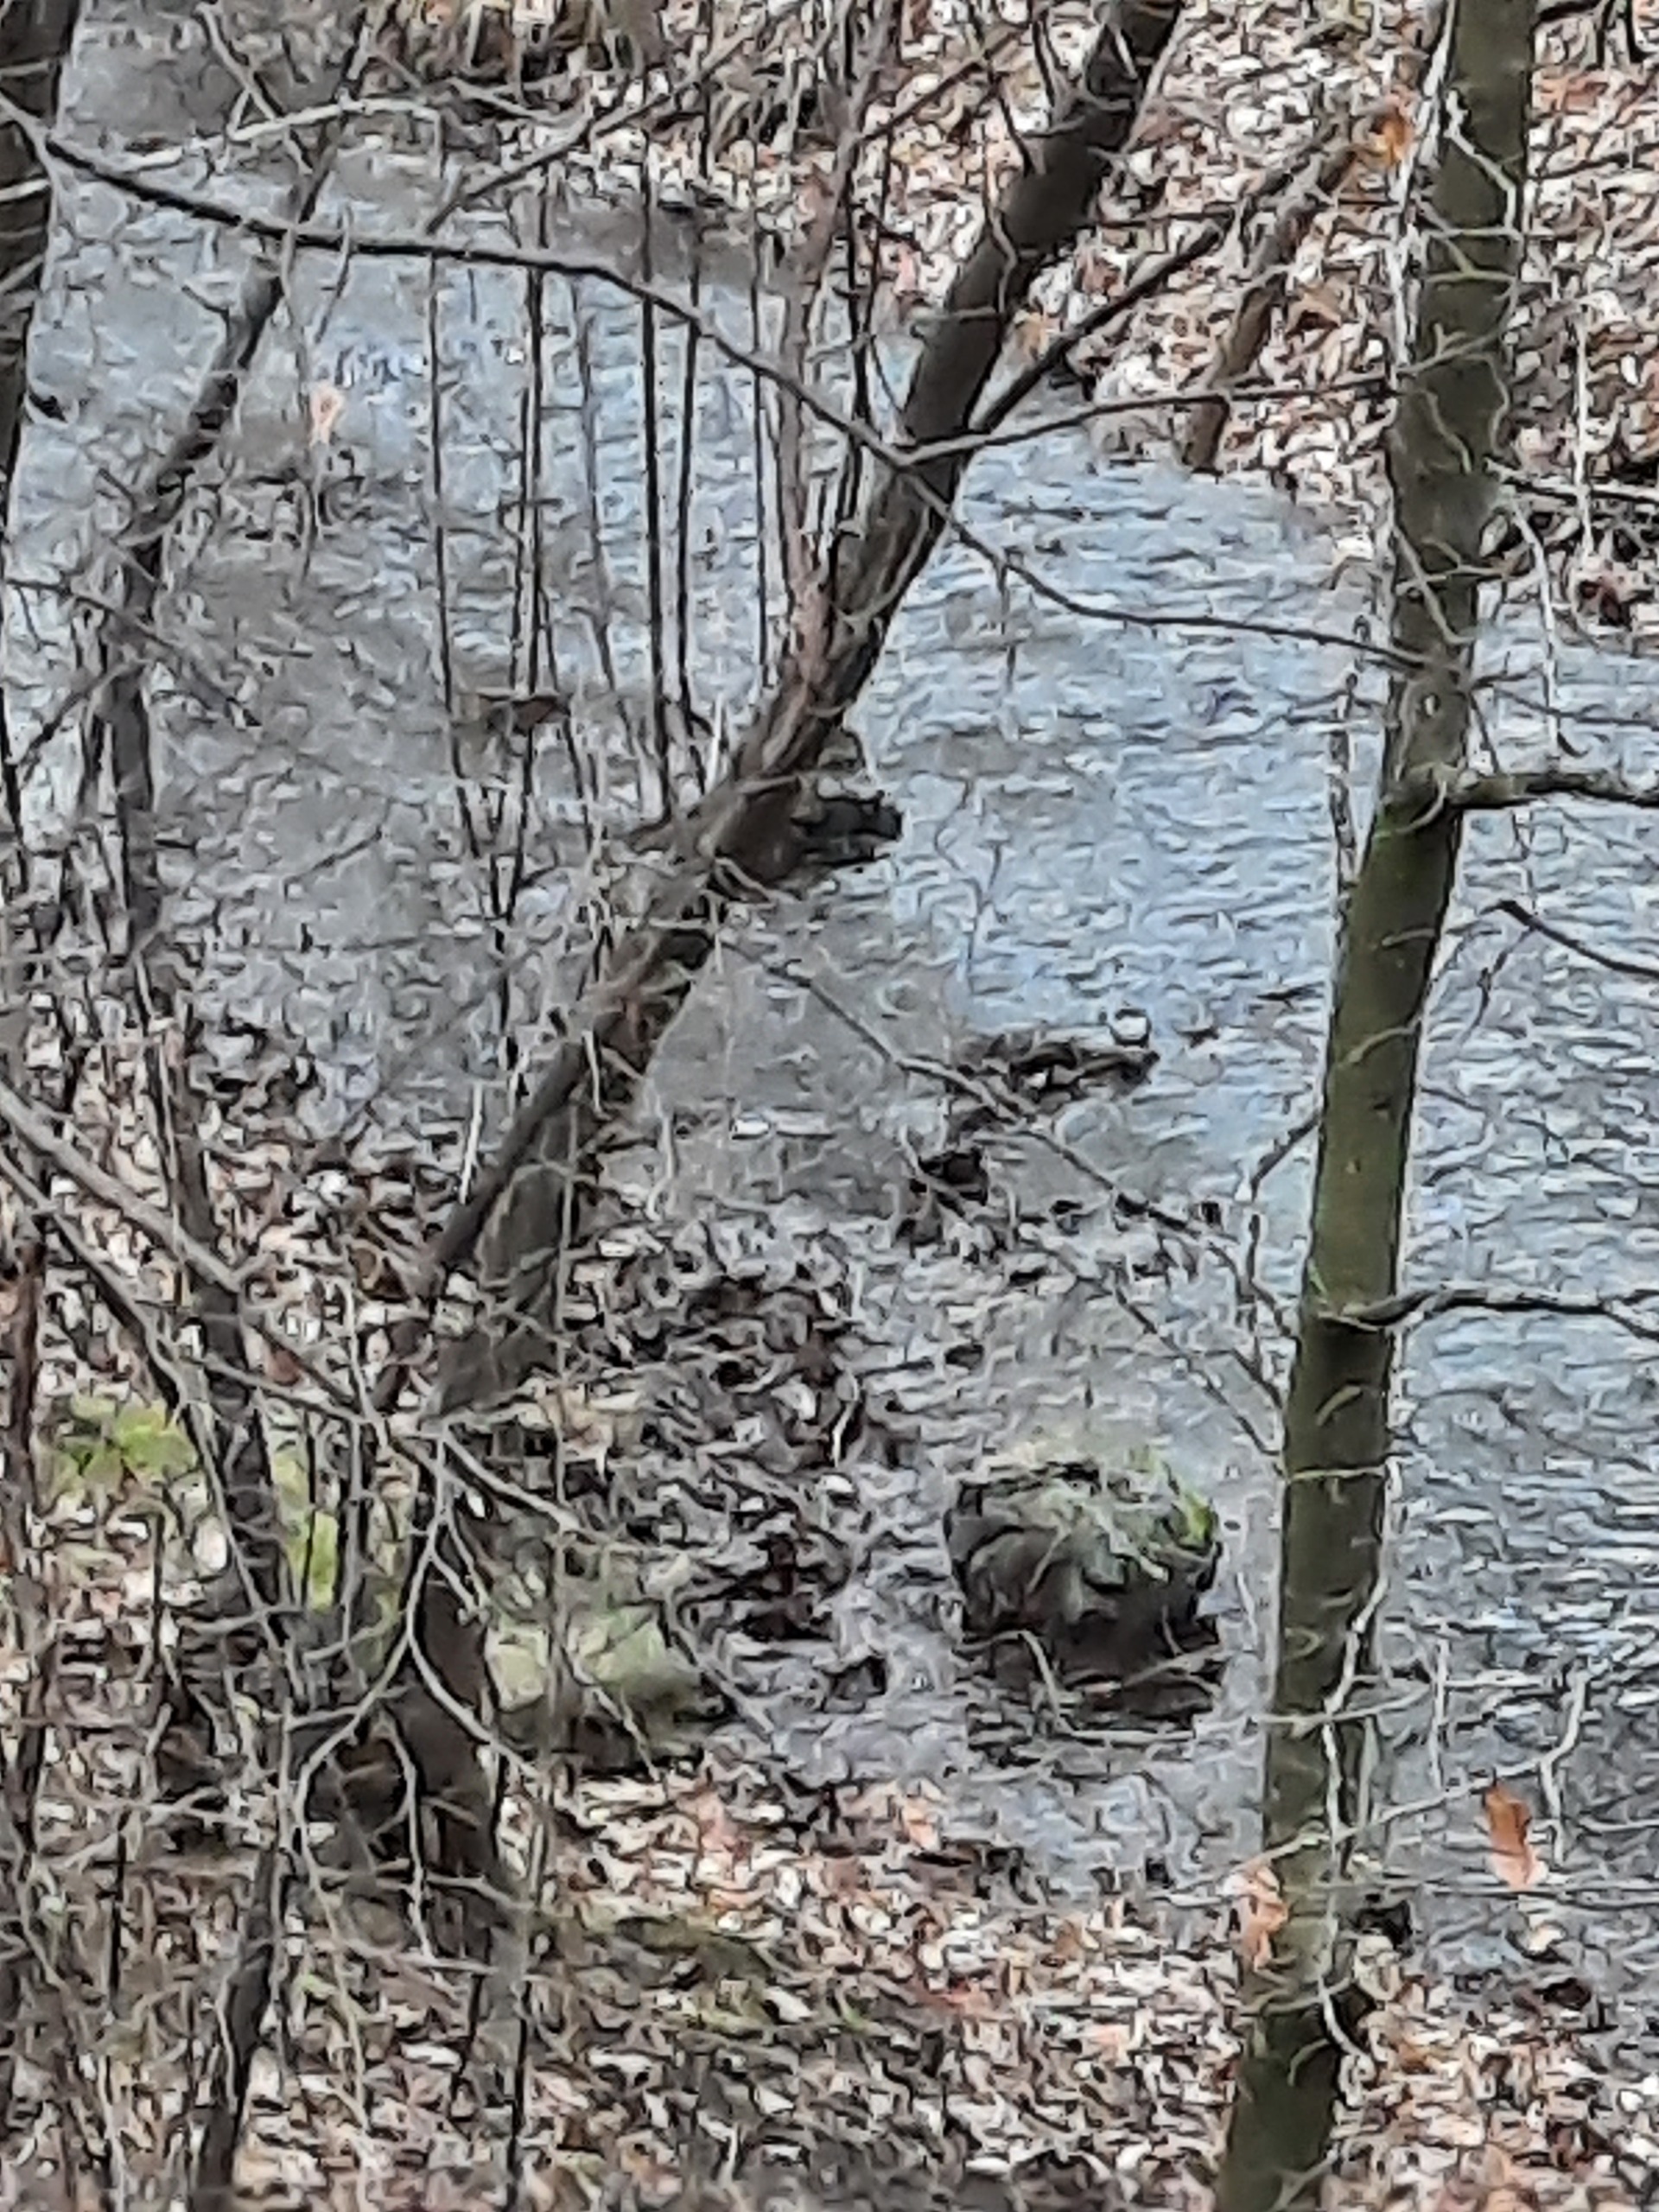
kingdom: Animalia
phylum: Chordata
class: Aves
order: Passeriformes
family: Cinclidae
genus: Cinclus
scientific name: Cinclus cinclus
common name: Vandstær
